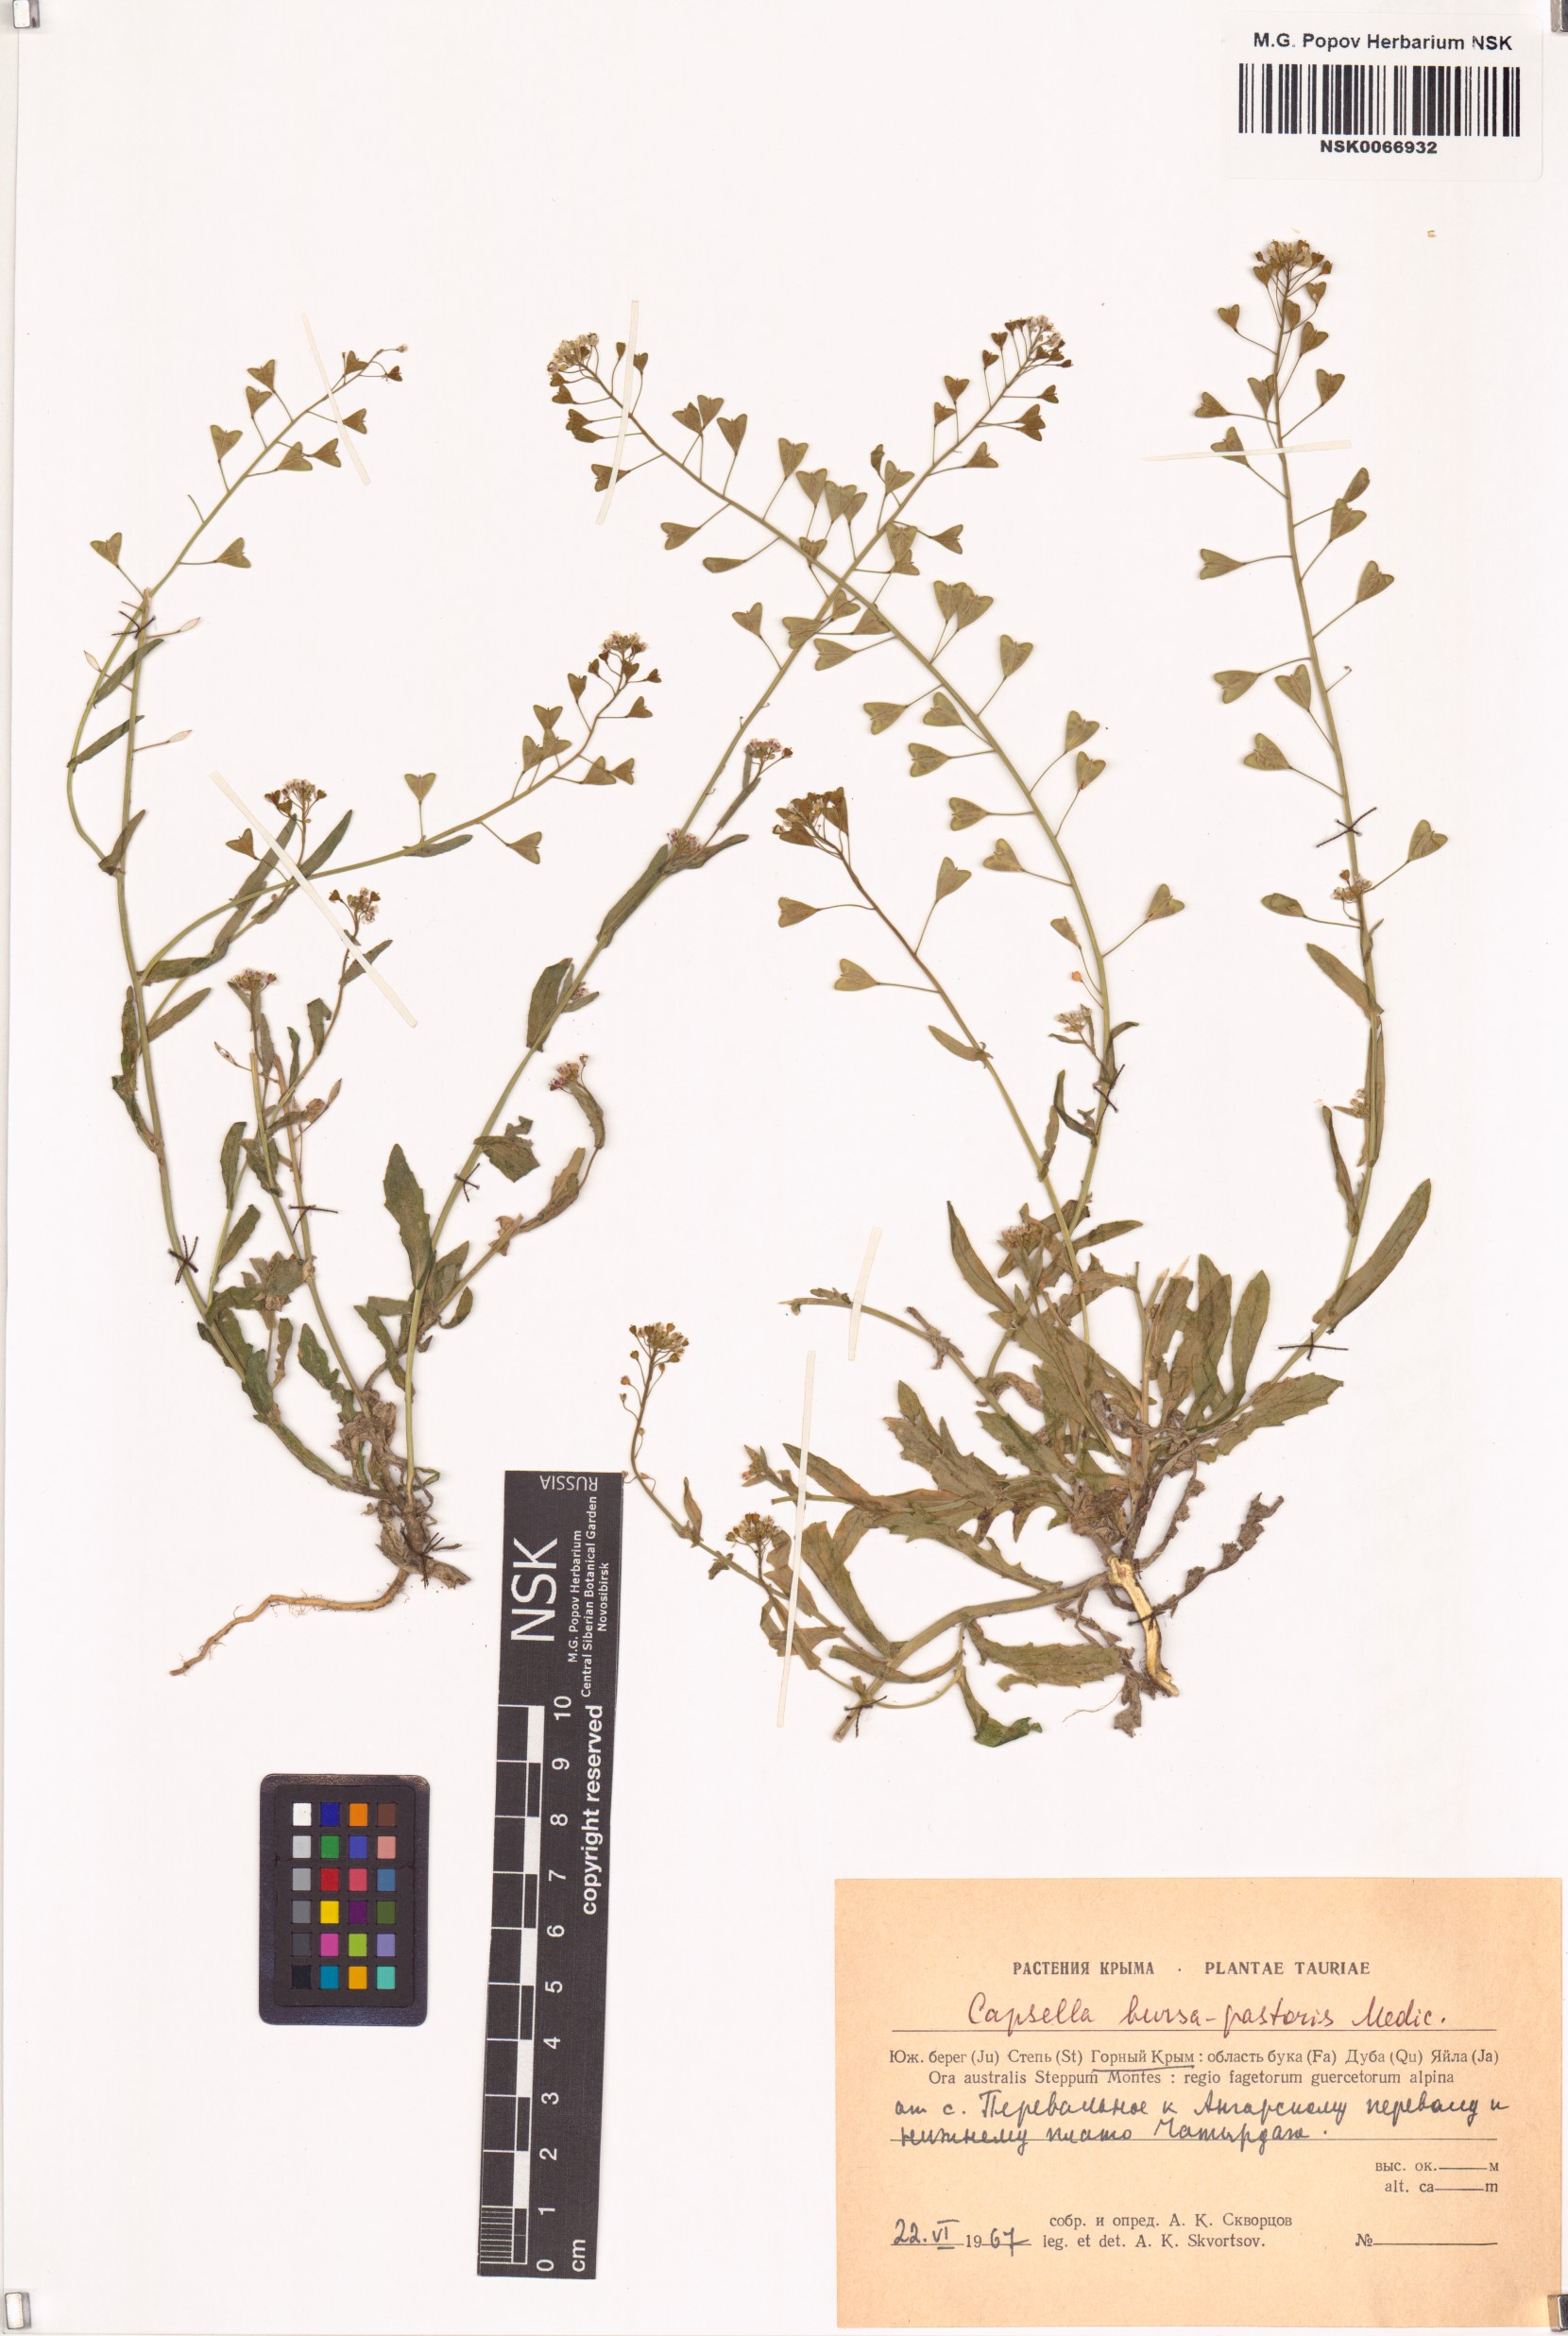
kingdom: Plantae
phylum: Tracheophyta
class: Magnoliopsida
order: Brassicales
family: Brassicaceae
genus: Capsella
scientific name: Capsella bursa-pastoris
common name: Shepherd's purse
